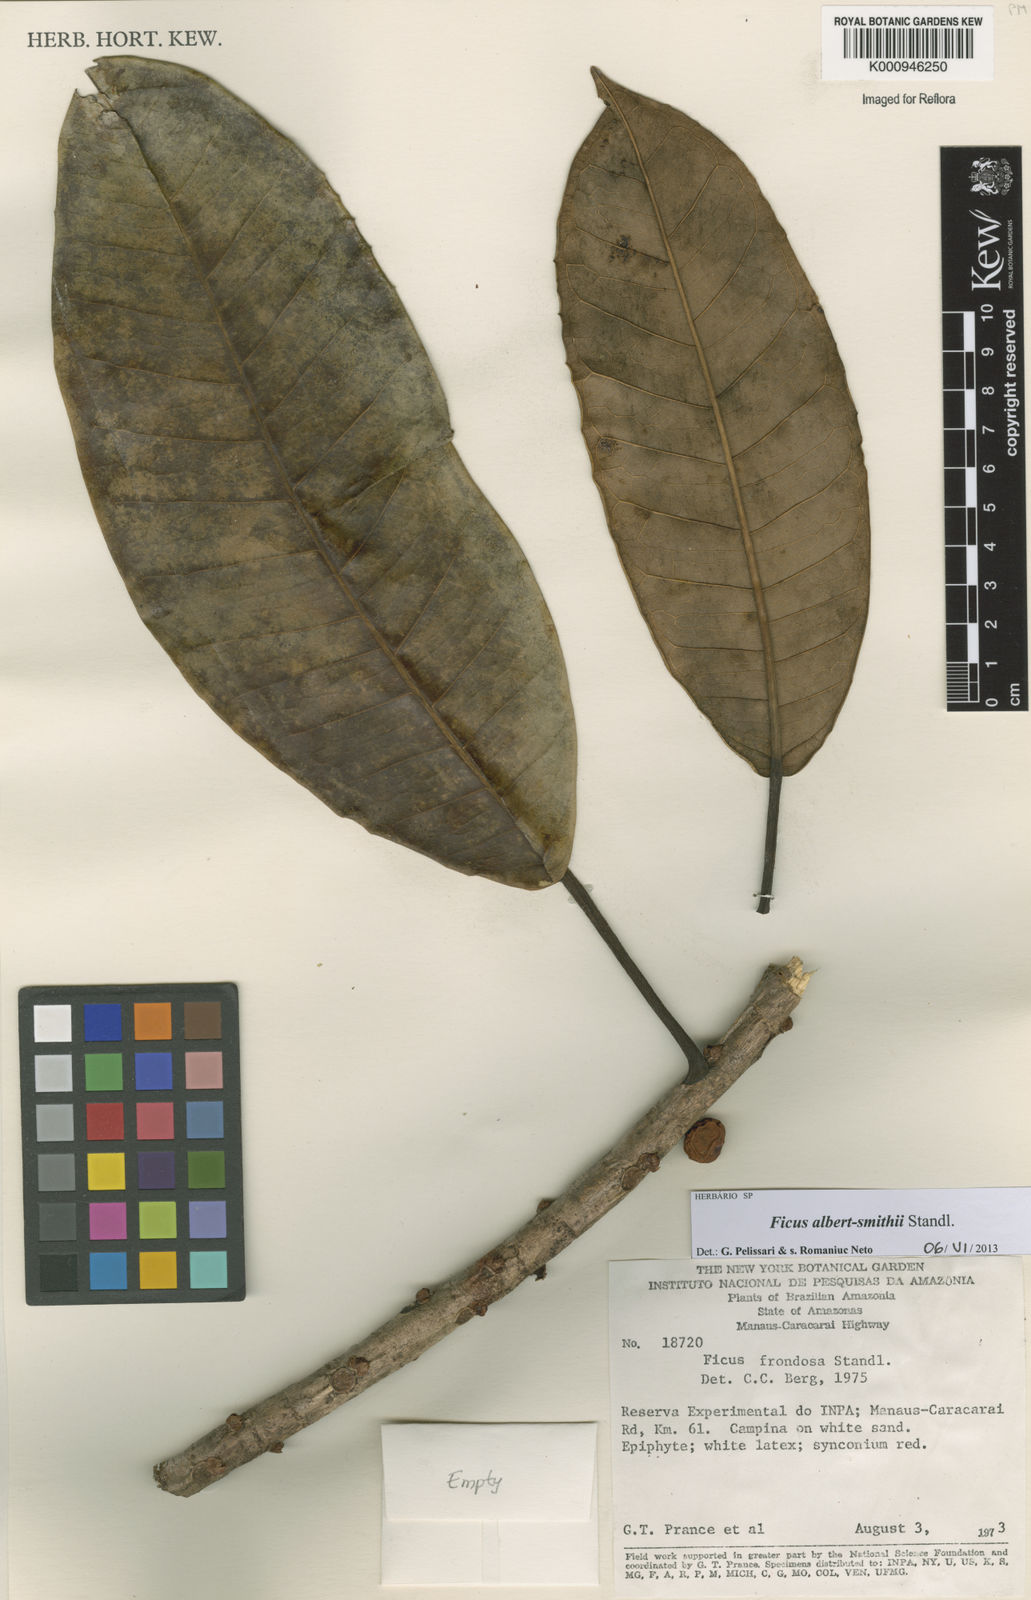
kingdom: Plantae
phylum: Tracheophyta
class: Magnoliopsida
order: Rosales
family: Moraceae
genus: Ficus
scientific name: Ficus albert-smithii
